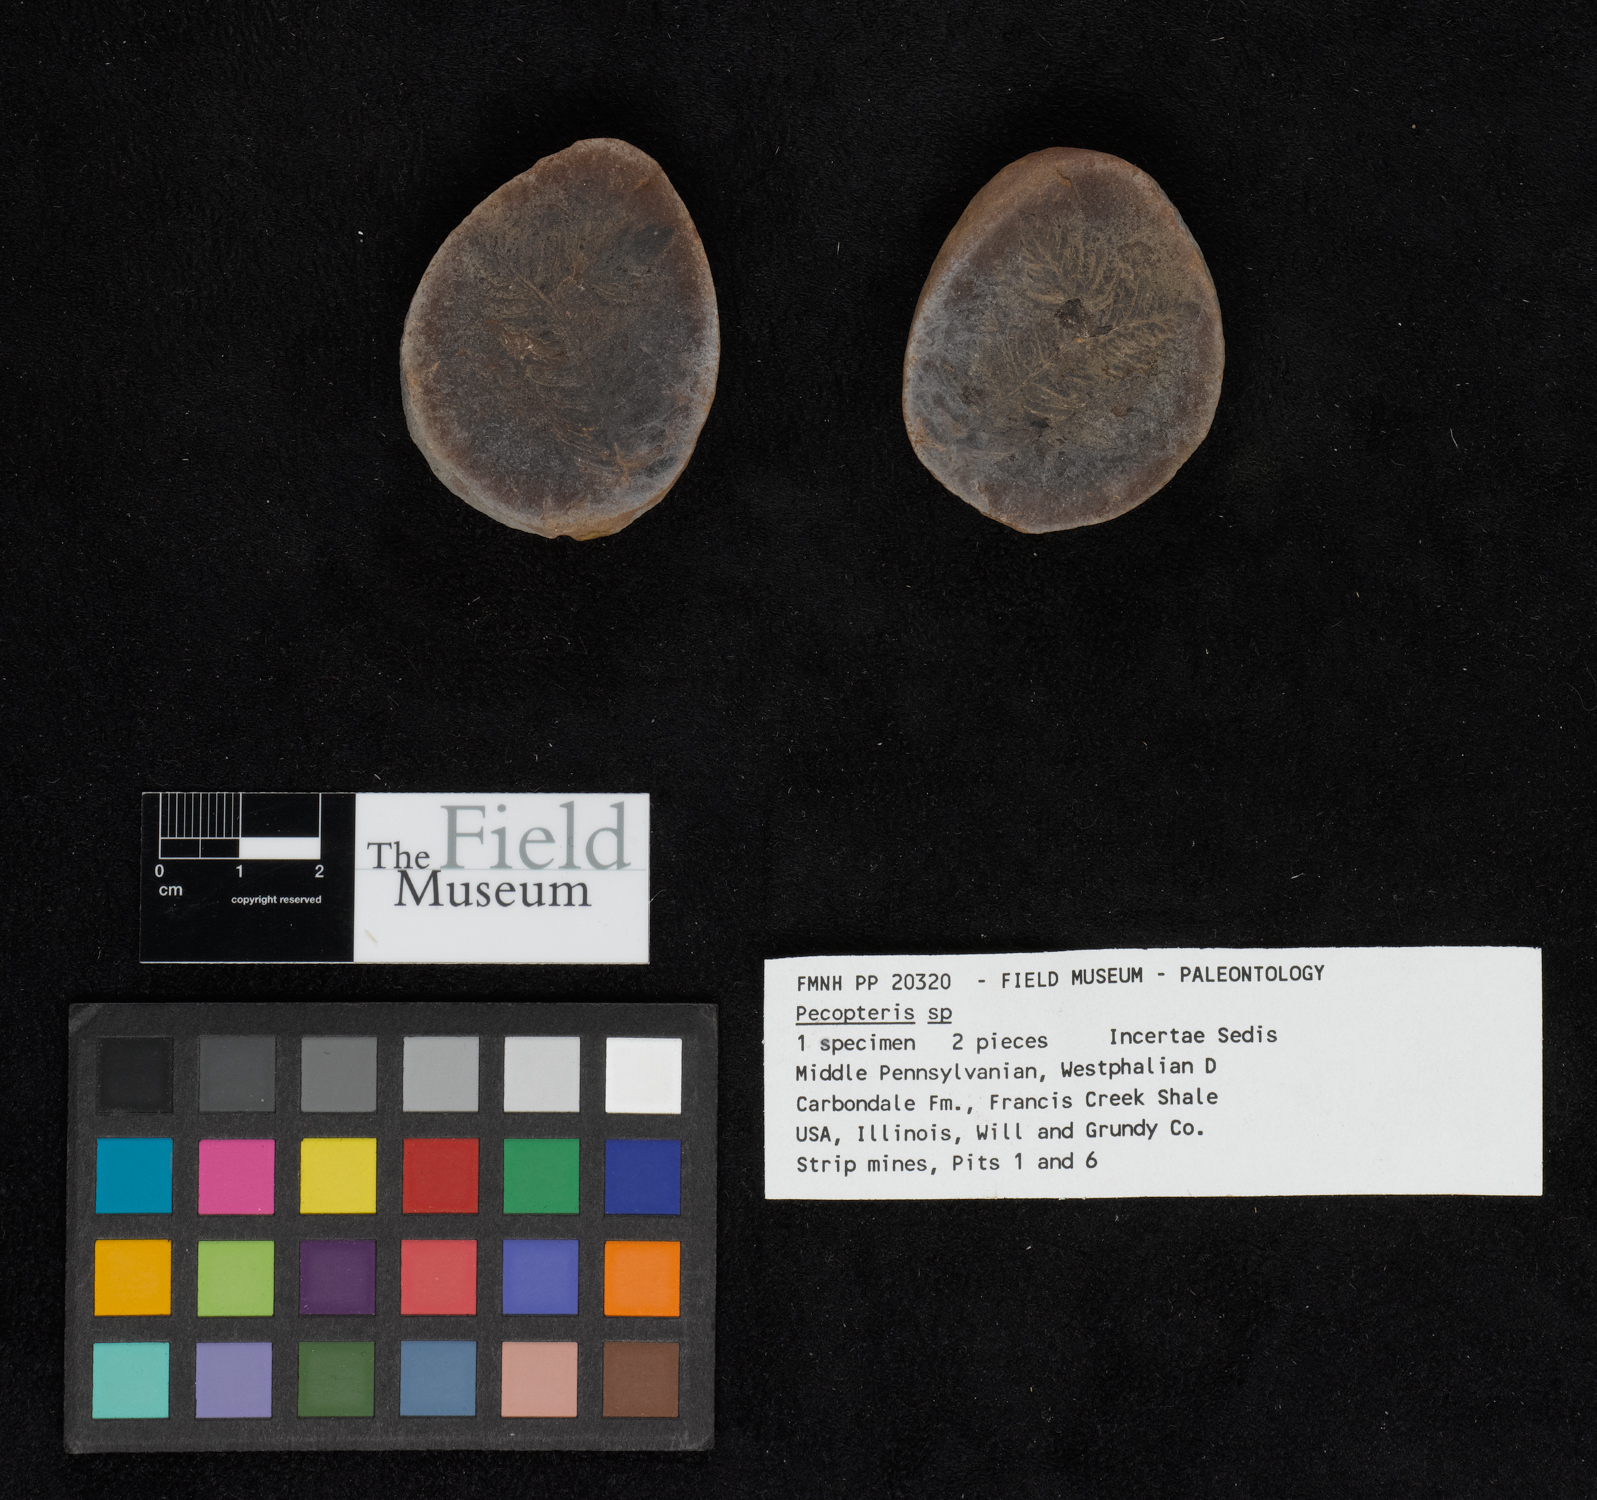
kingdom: Plantae
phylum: Tracheophyta
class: Polypodiopsida
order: Marattiales
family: Asterothecaceae
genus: Pecopteris
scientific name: Pecopteris
